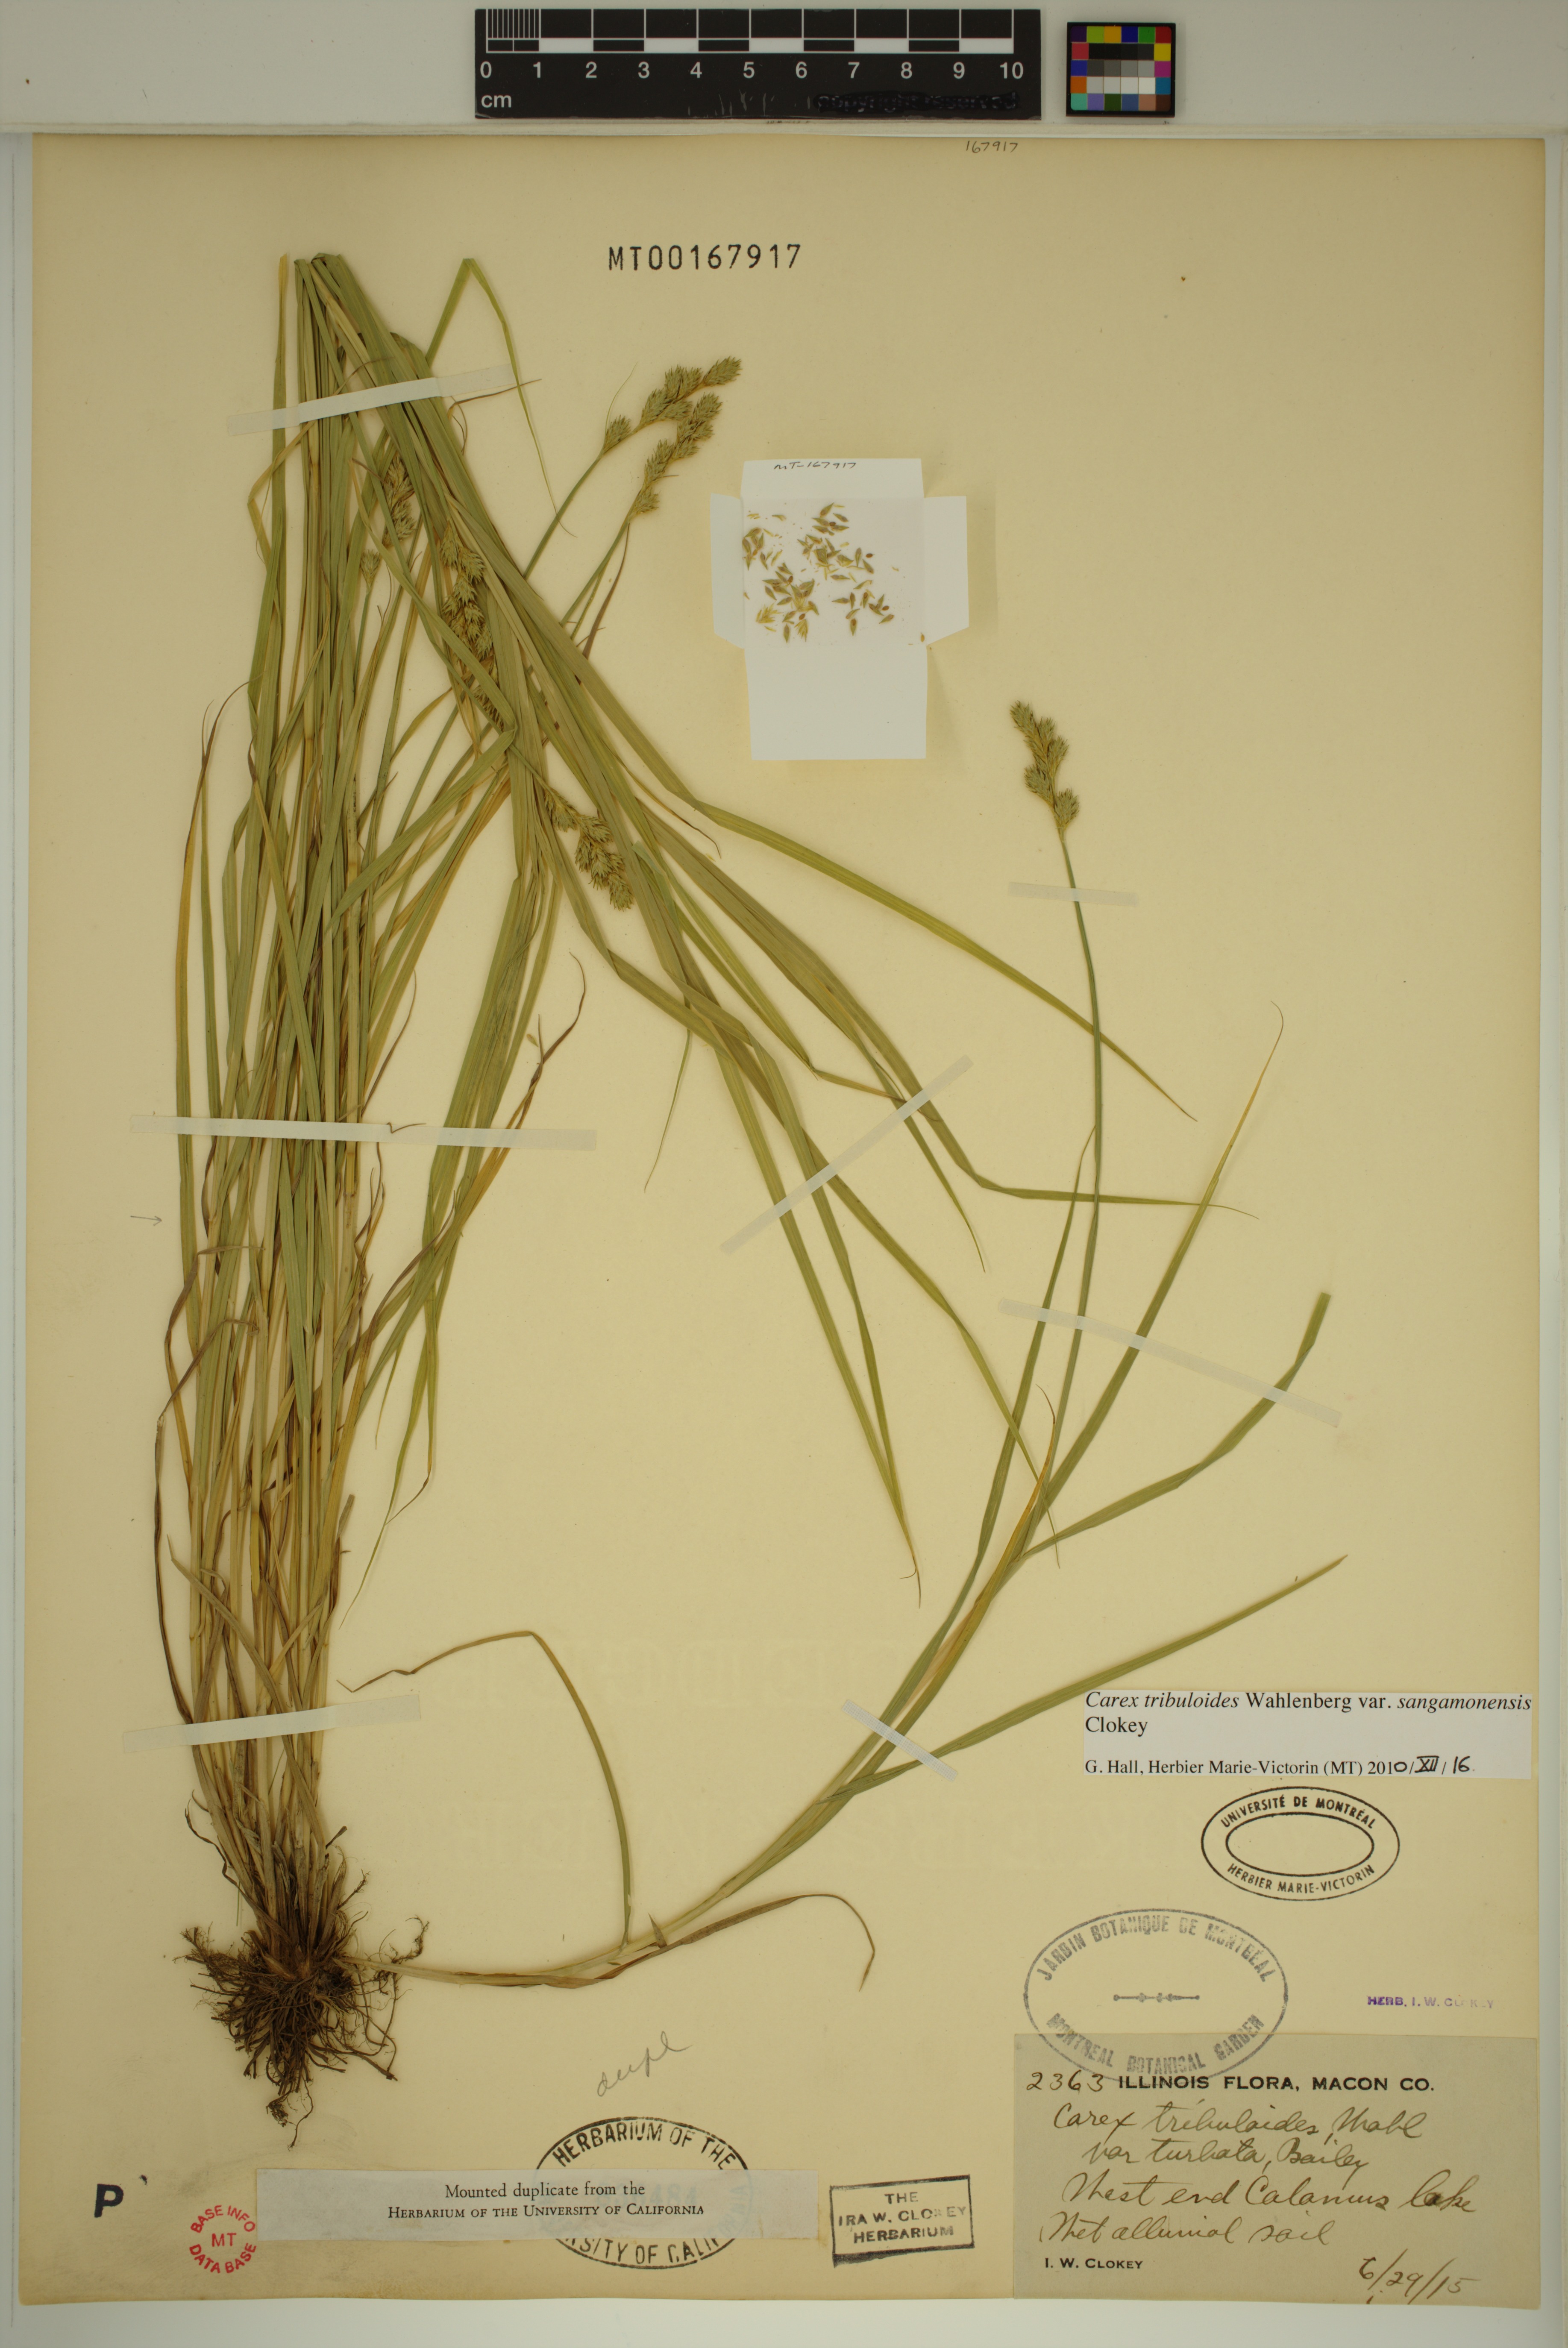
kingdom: Plantae
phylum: Tracheophyta
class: Liliopsida
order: Poales
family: Cyperaceae
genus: Carex
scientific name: Carex tribuloides
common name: Blunt broom sedge
